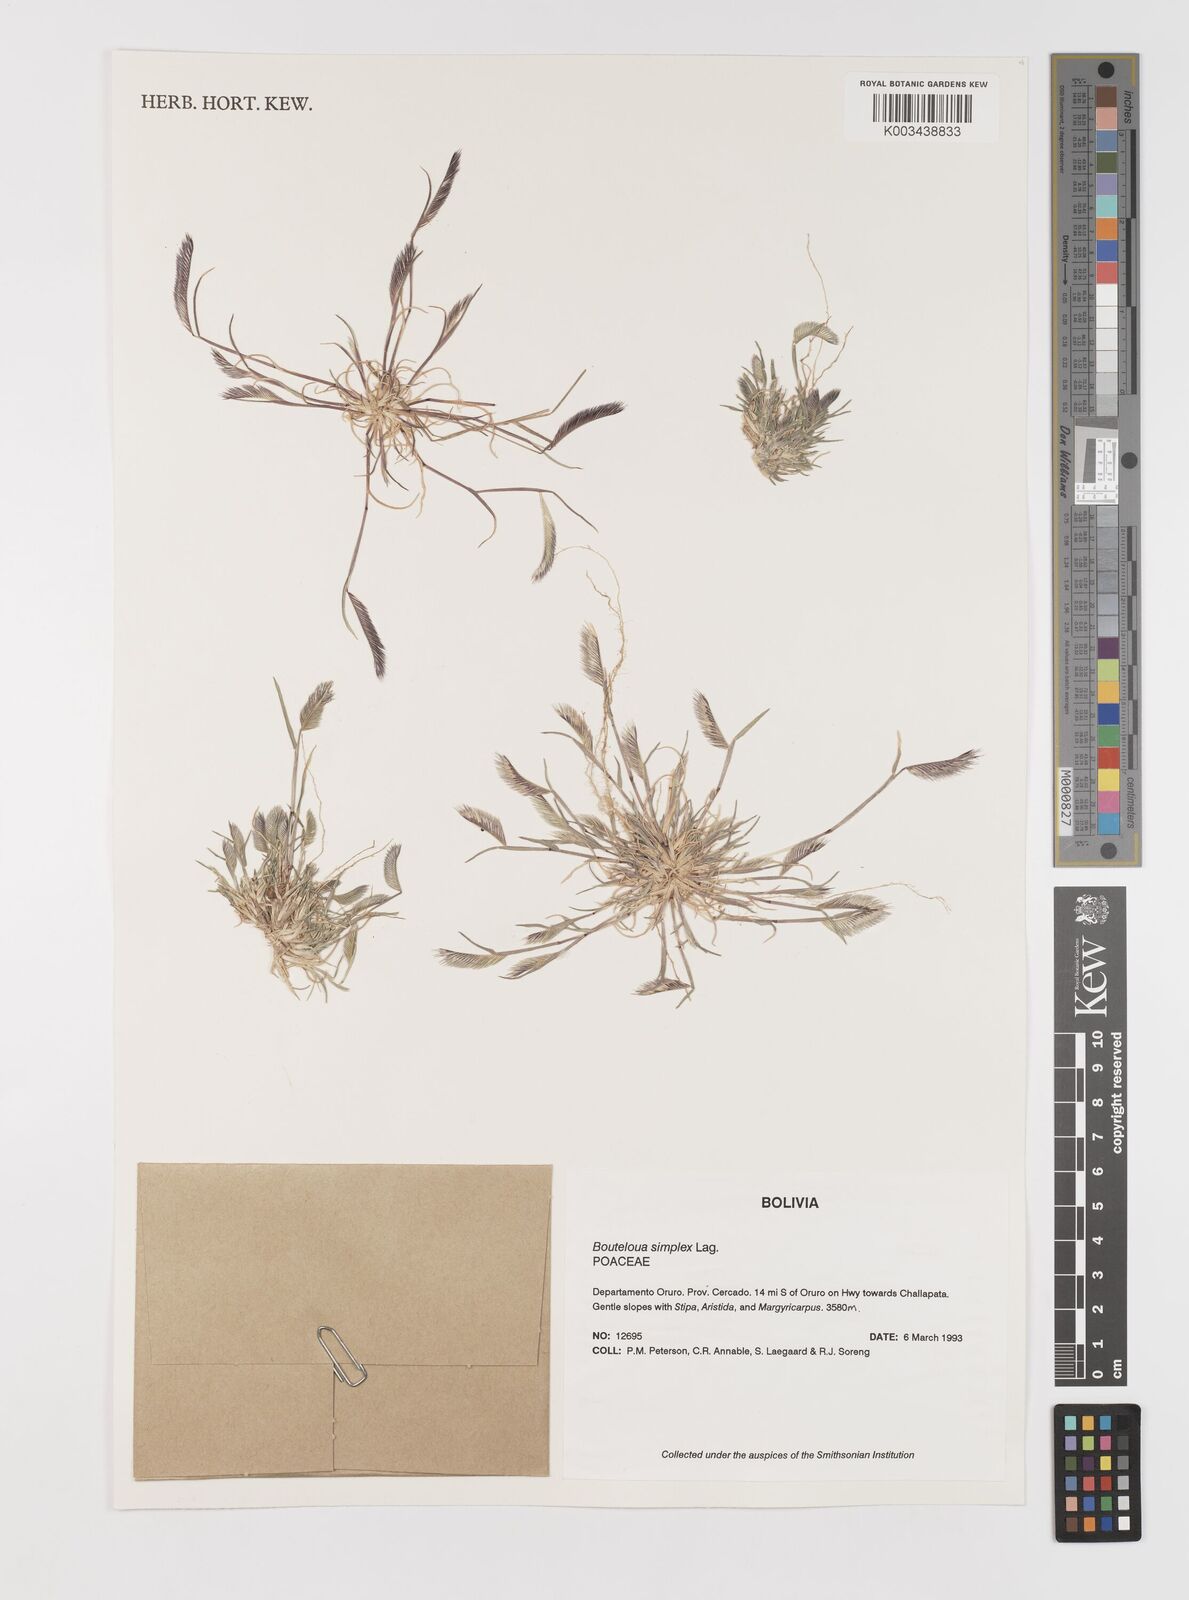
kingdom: Plantae
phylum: Tracheophyta
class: Liliopsida
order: Poales
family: Poaceae
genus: Bouteloua
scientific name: Bouteloua simplex
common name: Mat grama
